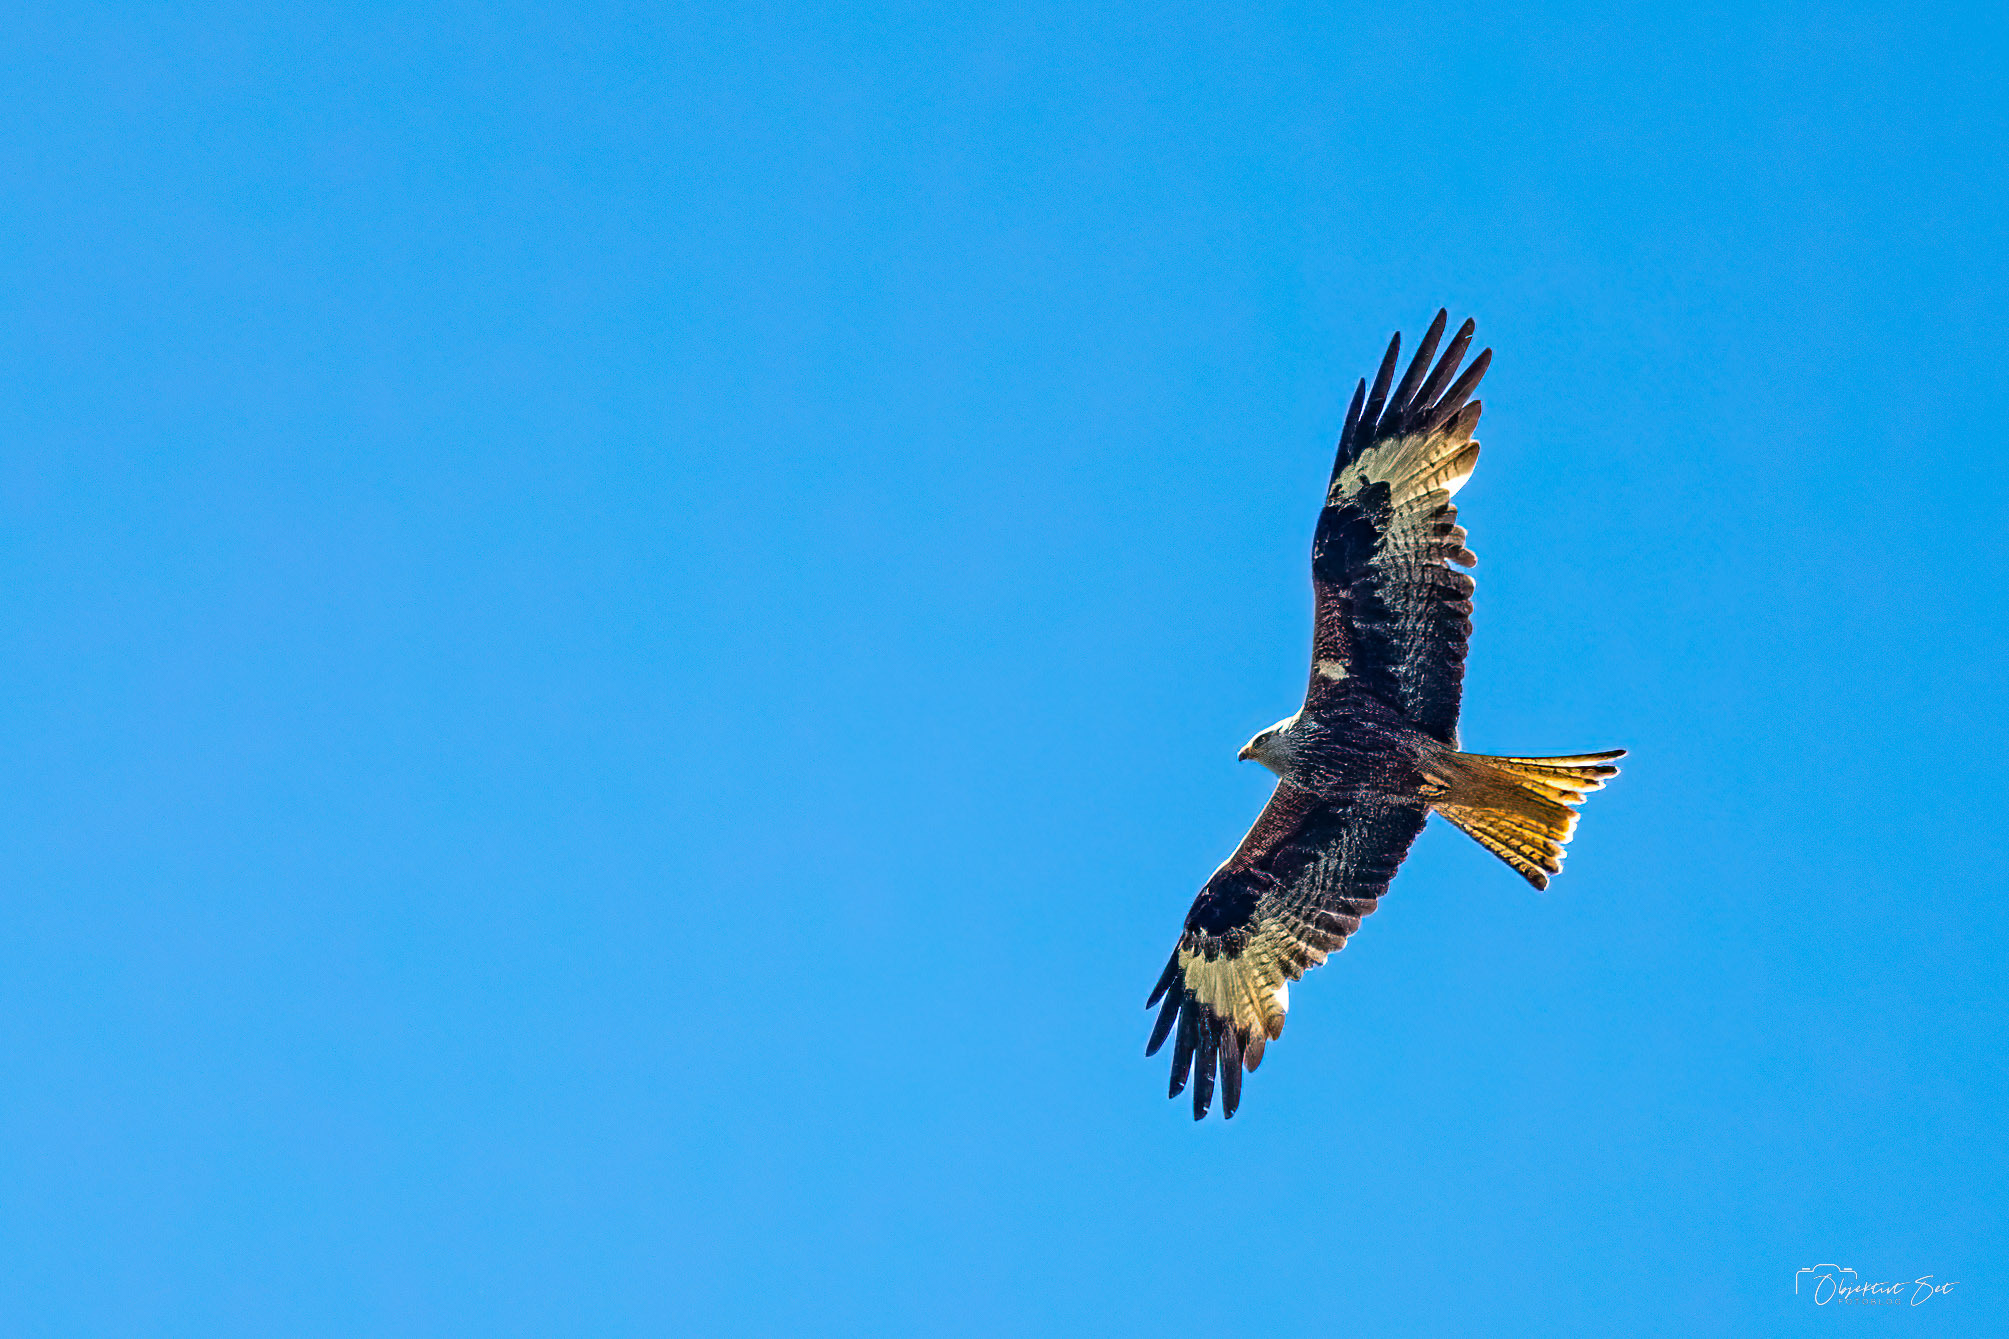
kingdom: Animalia
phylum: Chordata
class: Aves
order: Accipitriformes
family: Accipitridae
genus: Milvus
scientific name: Milvus milvus
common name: Rød glente
